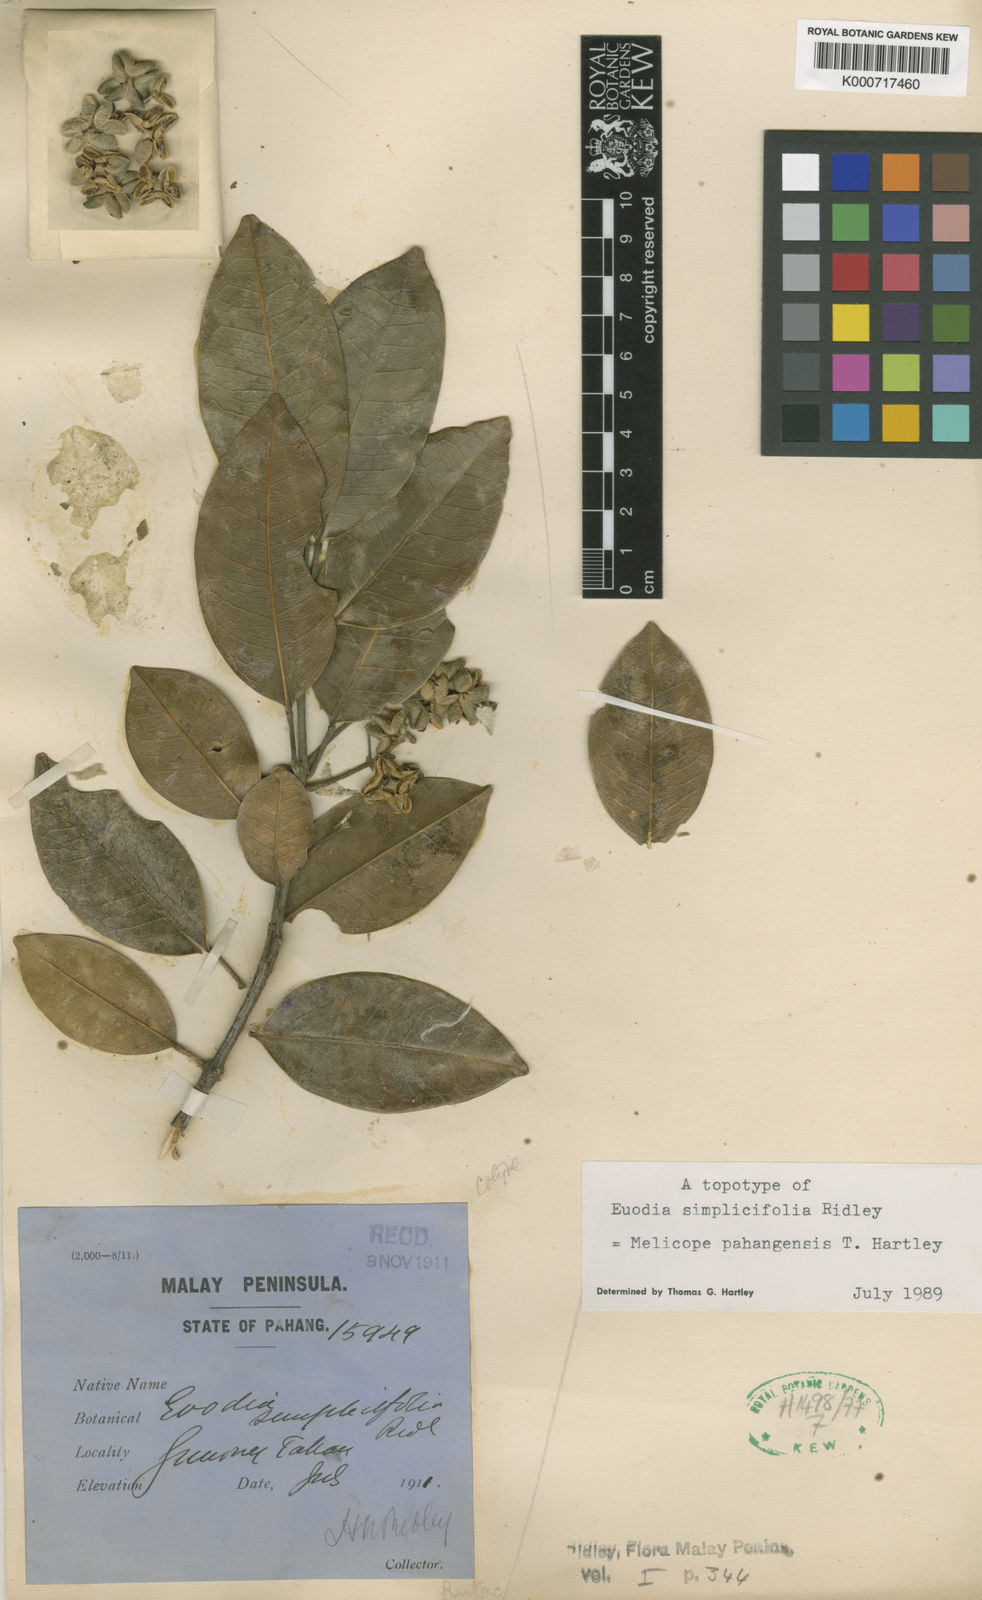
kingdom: Plantae
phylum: Tracheophyta
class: Magnoliopsida
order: Sapindales
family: Rutaceae
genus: Melicope
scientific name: Melicope pahangensis
